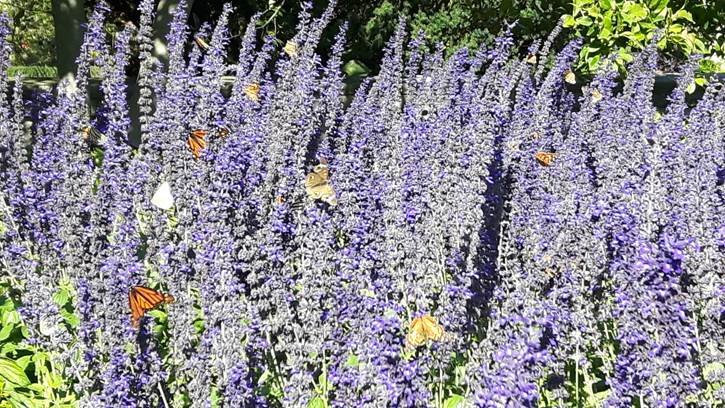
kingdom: Animalia
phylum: Arthropoda
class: Insecta
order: Lepidoptera
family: Nymphalidae
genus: Danaus
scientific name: Danaus plexippus
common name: Monarch
